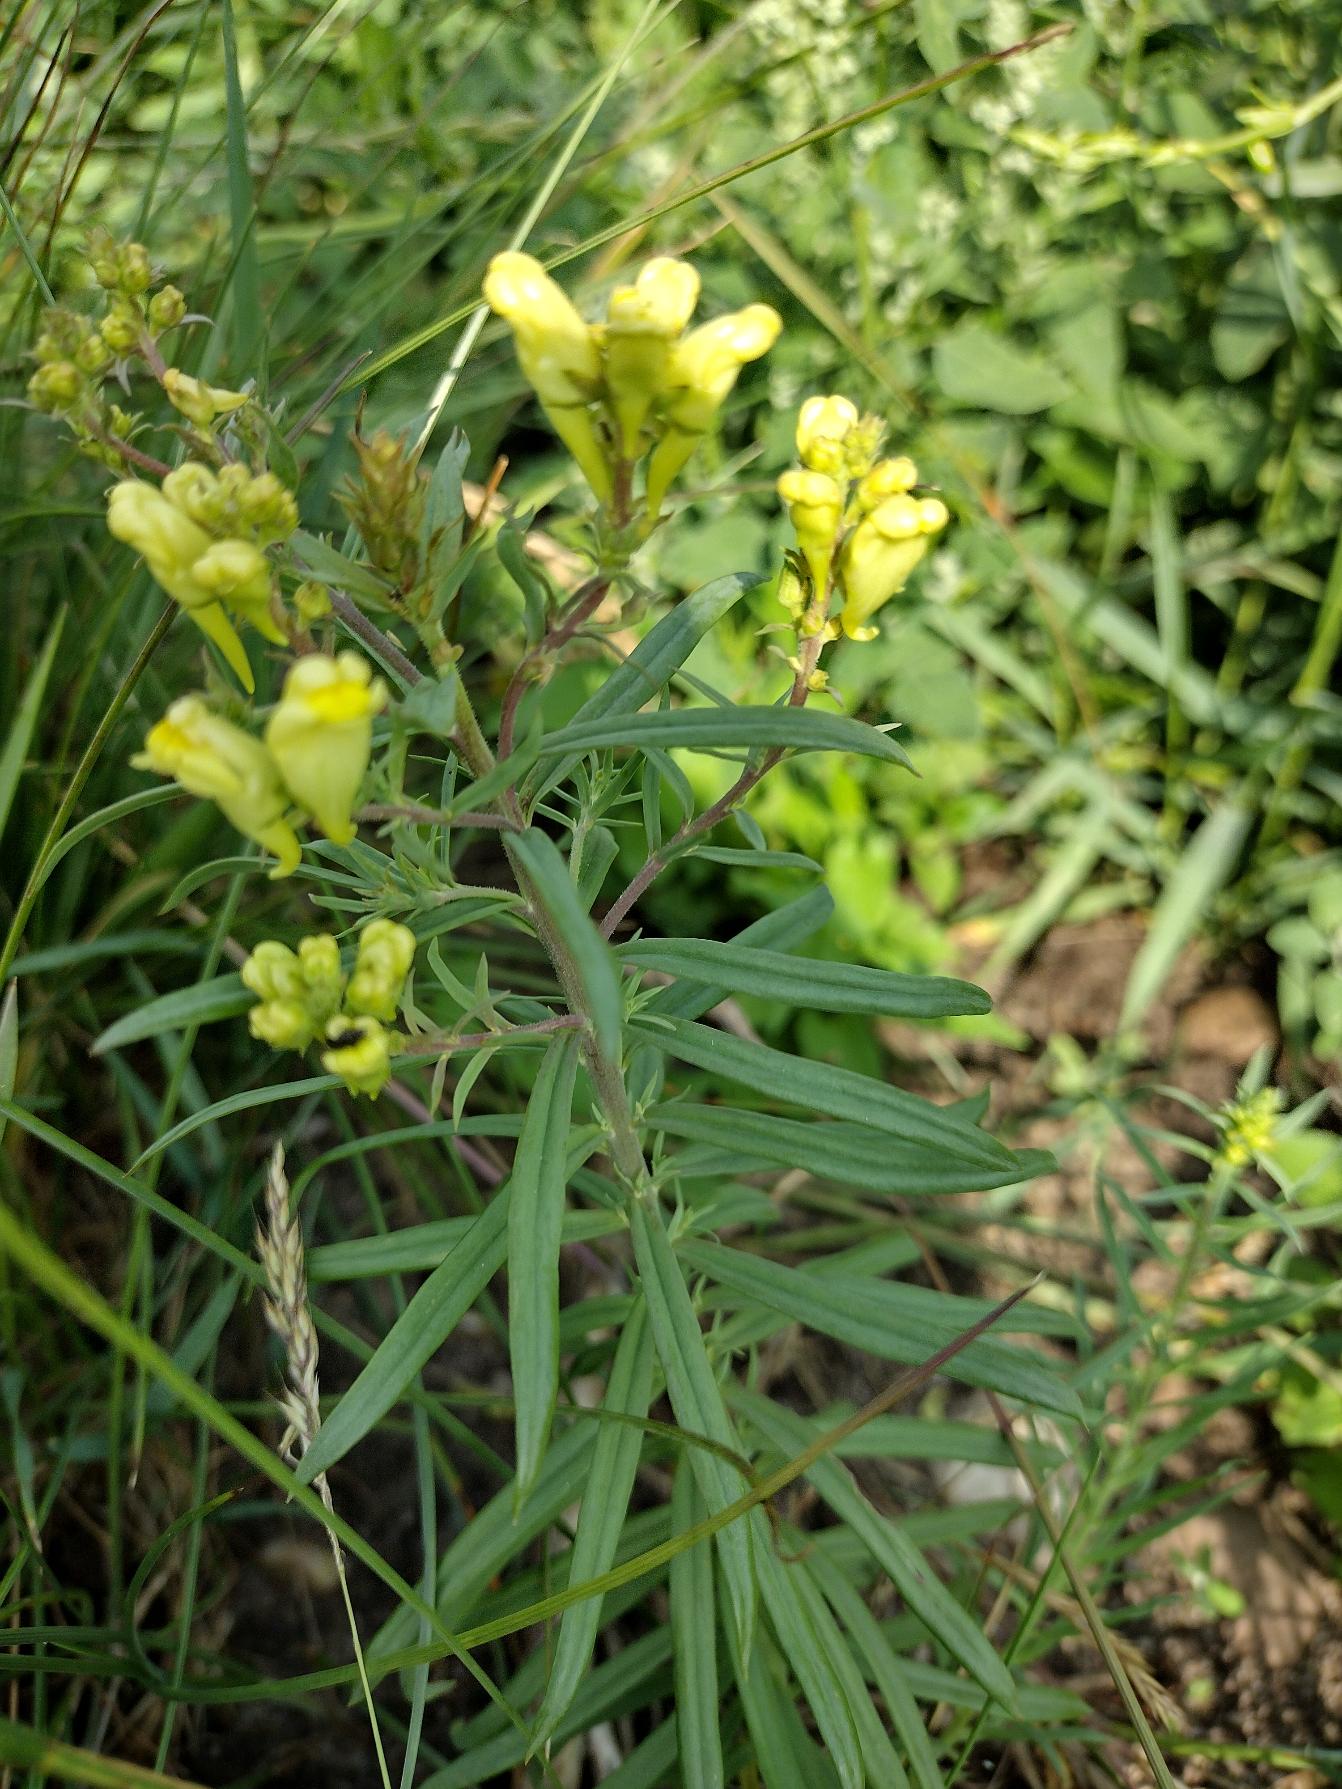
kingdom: Plantae
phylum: Tracheophyta
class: Magnoliopsida
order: Lamiales
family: Plantaginaceae
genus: Linaria
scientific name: Linaria vulgaris
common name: Almindelig torskemund
